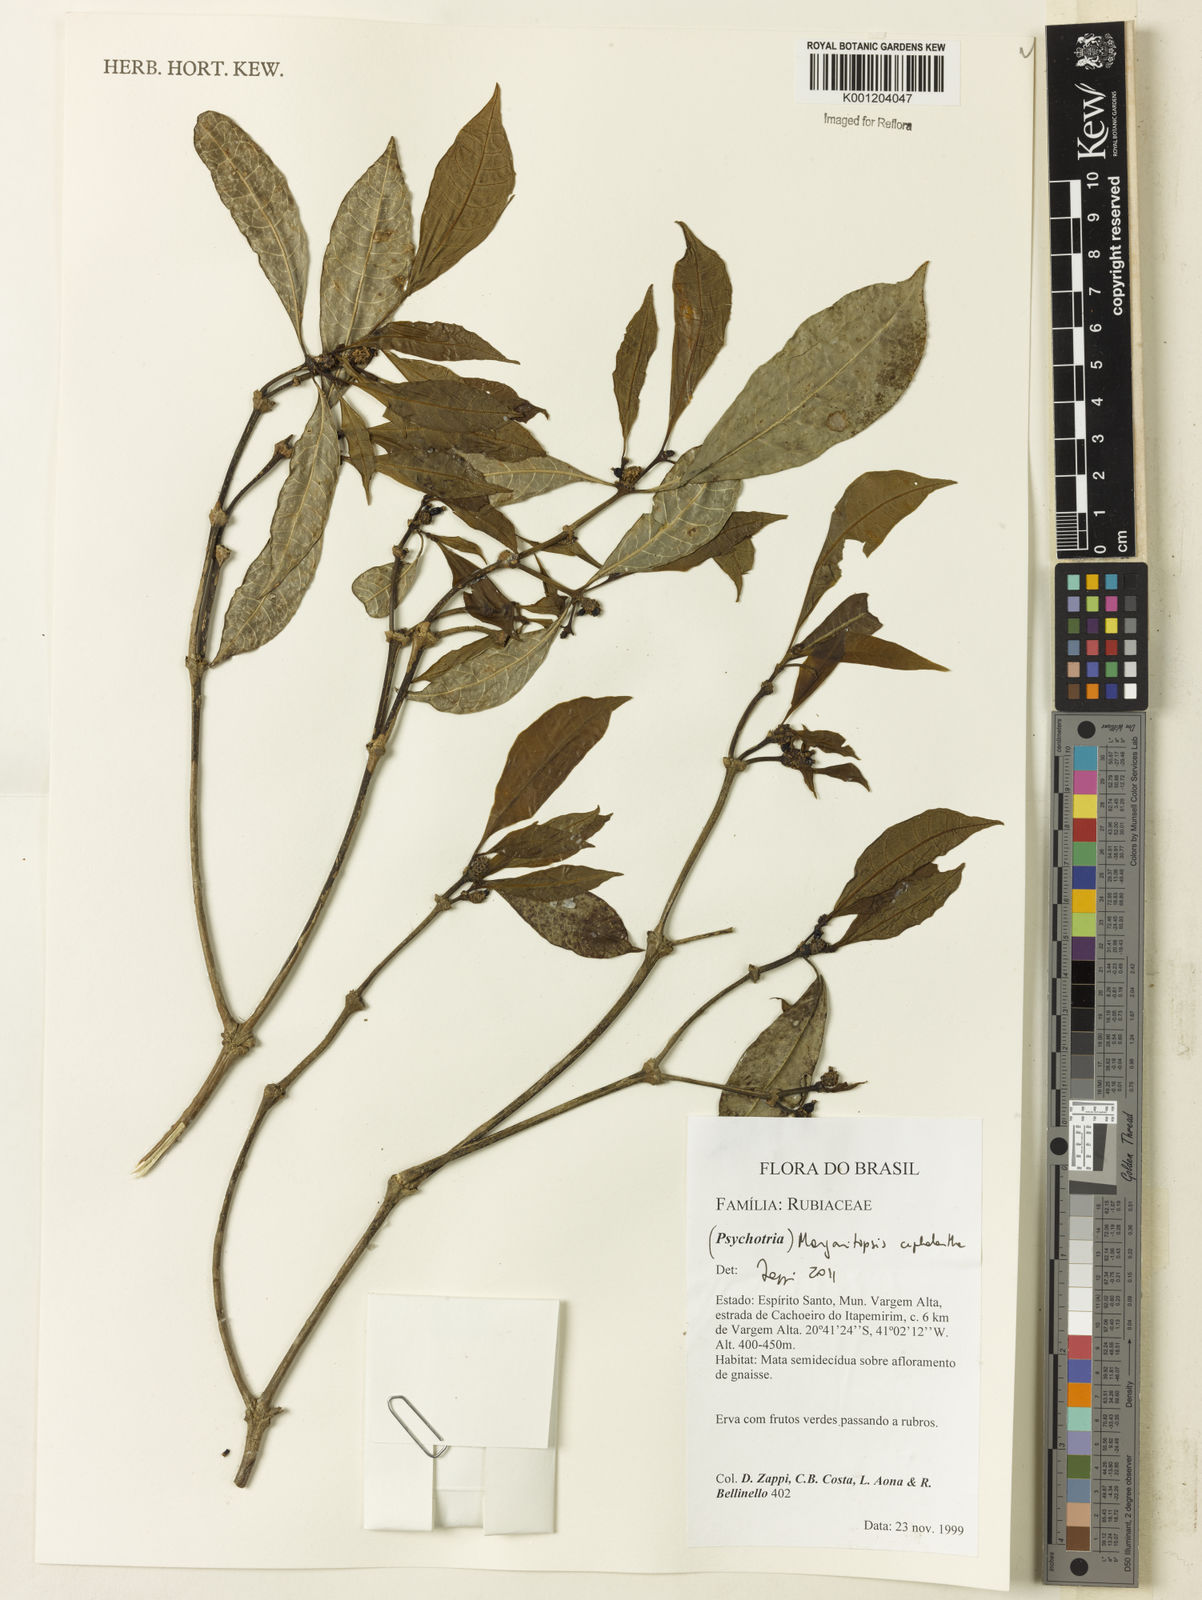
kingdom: Plantae
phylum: Tracheophyta
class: Magnoliopsida
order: Gentianales
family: Rubiaceae
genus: Eumachia
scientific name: Eumachia
